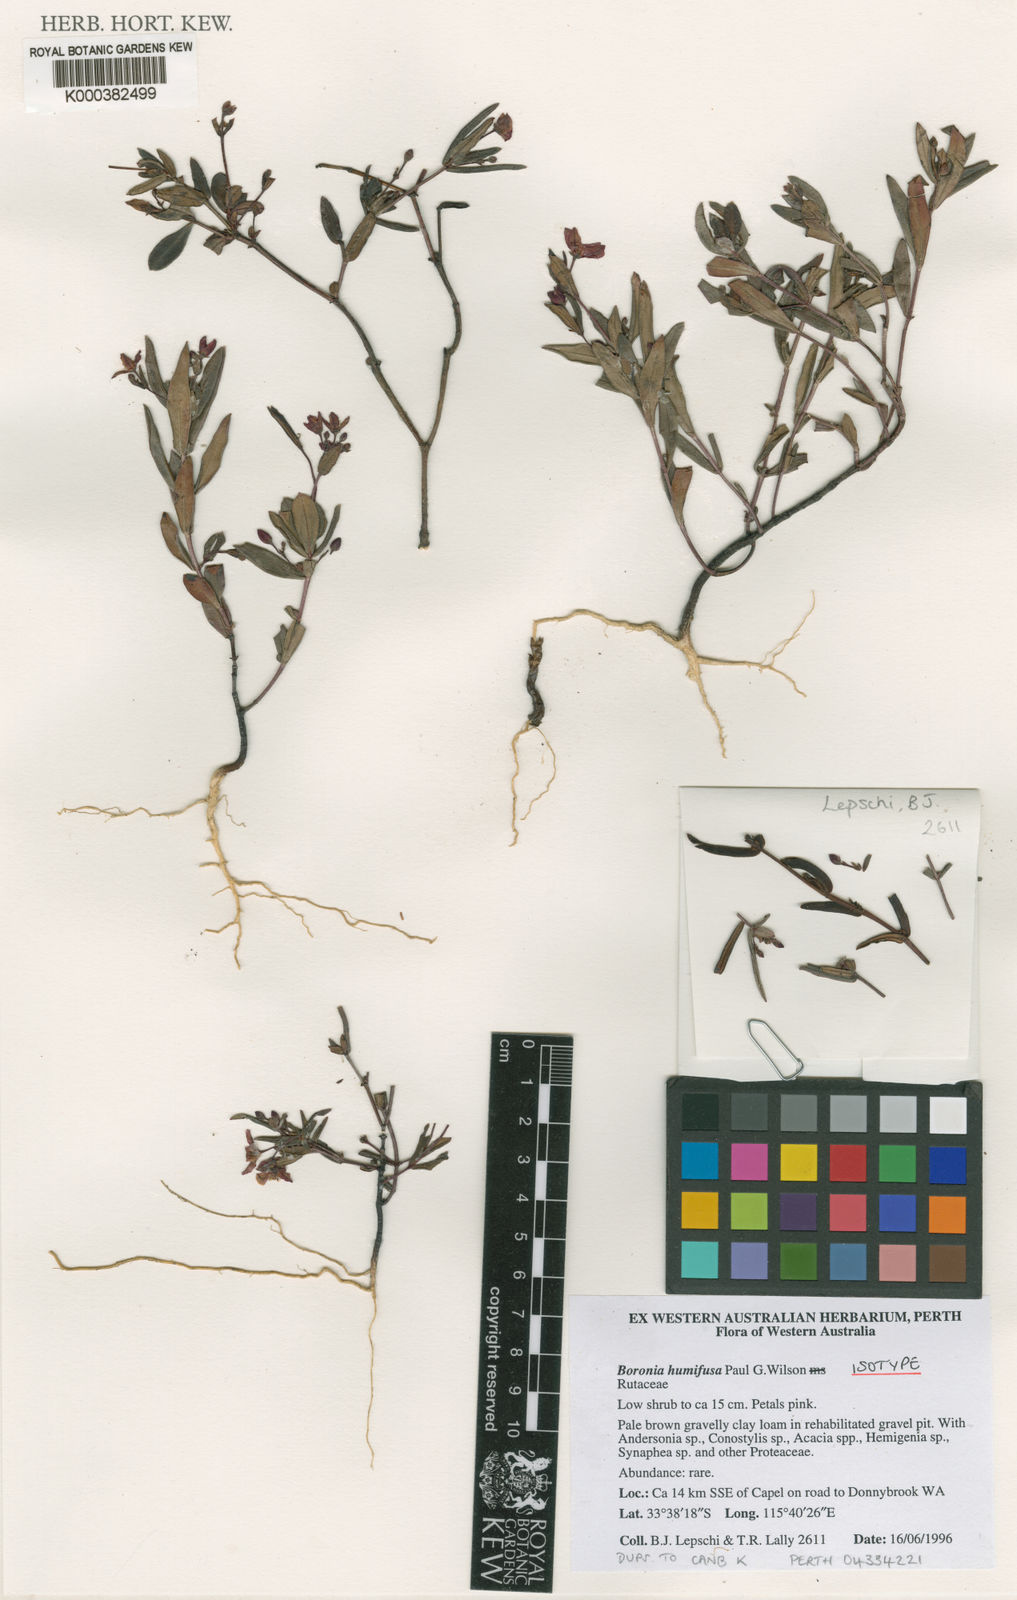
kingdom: Plantae
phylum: Tracheophyta
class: Magnoliopsida
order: Sapindales
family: Rutaceae
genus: Boronia
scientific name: Boronia humifusa
